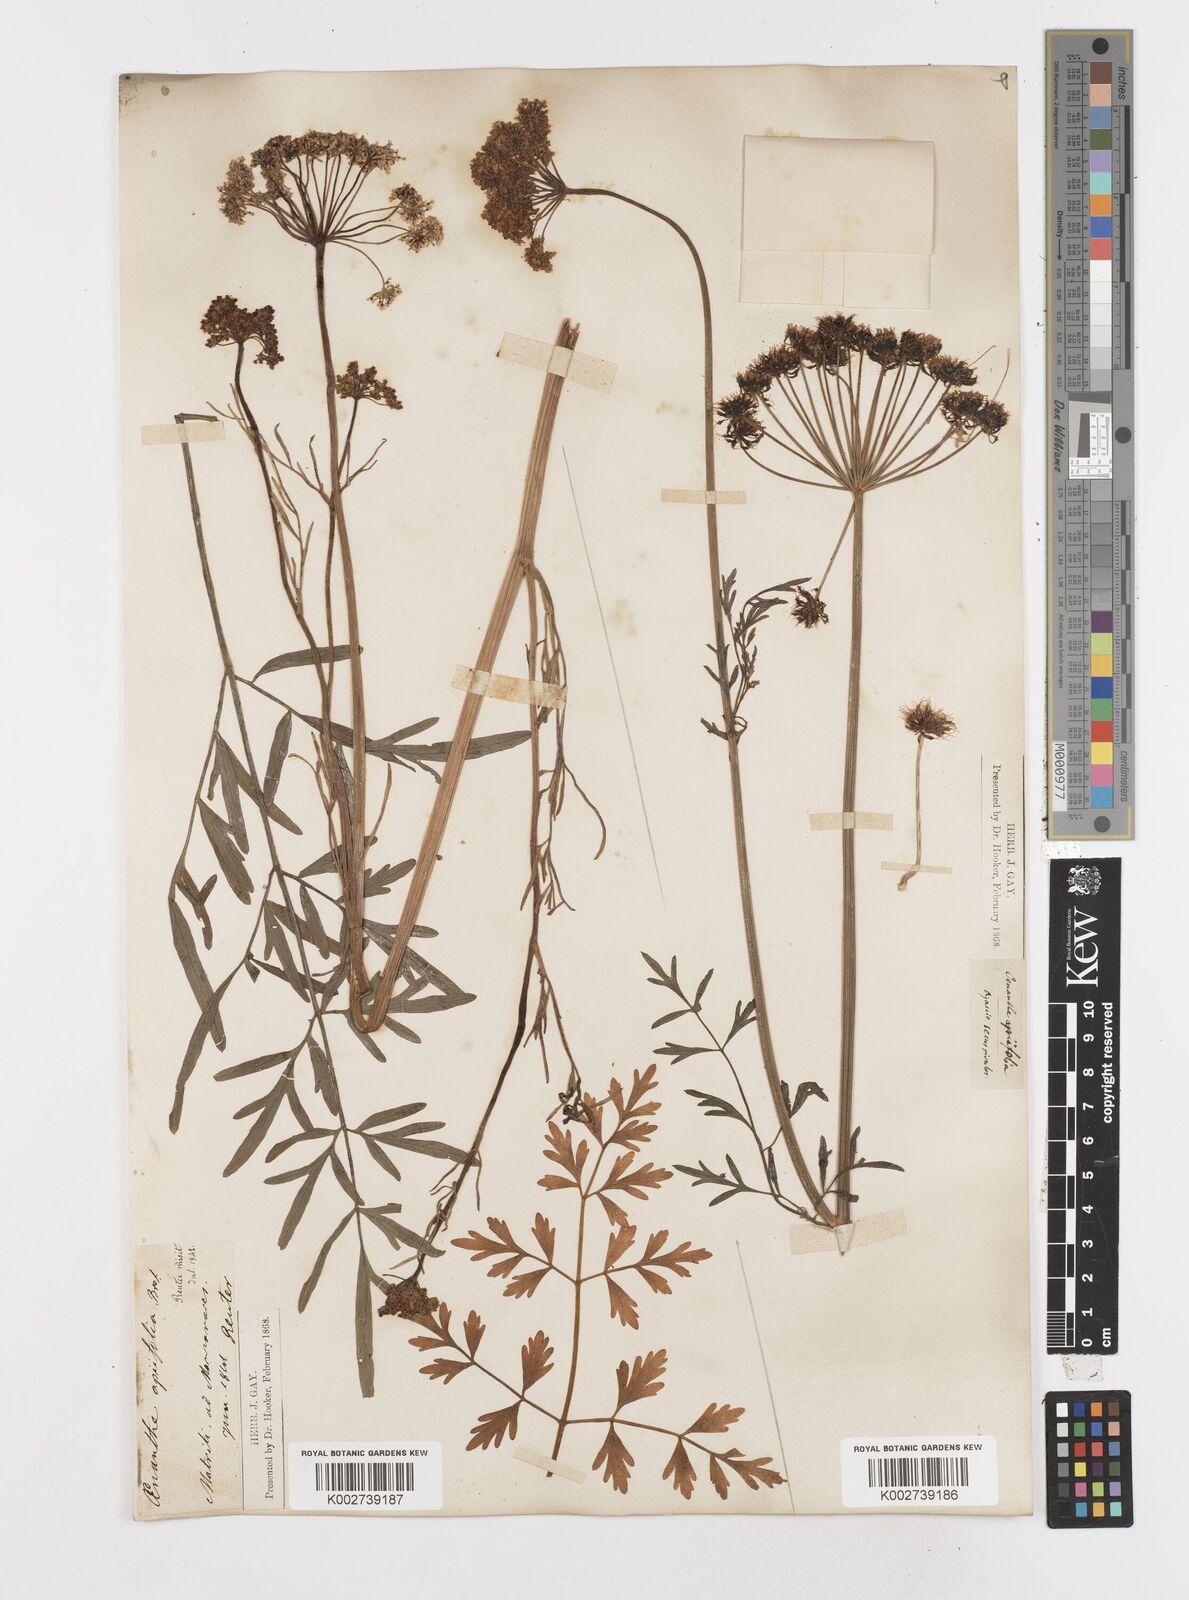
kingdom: Plantae
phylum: Tracheophyta
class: Magnoliopsida
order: Apiales
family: Apiaceae
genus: Oenanthe
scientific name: Oenanthe crocata
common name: Hemlock water-dropwort
